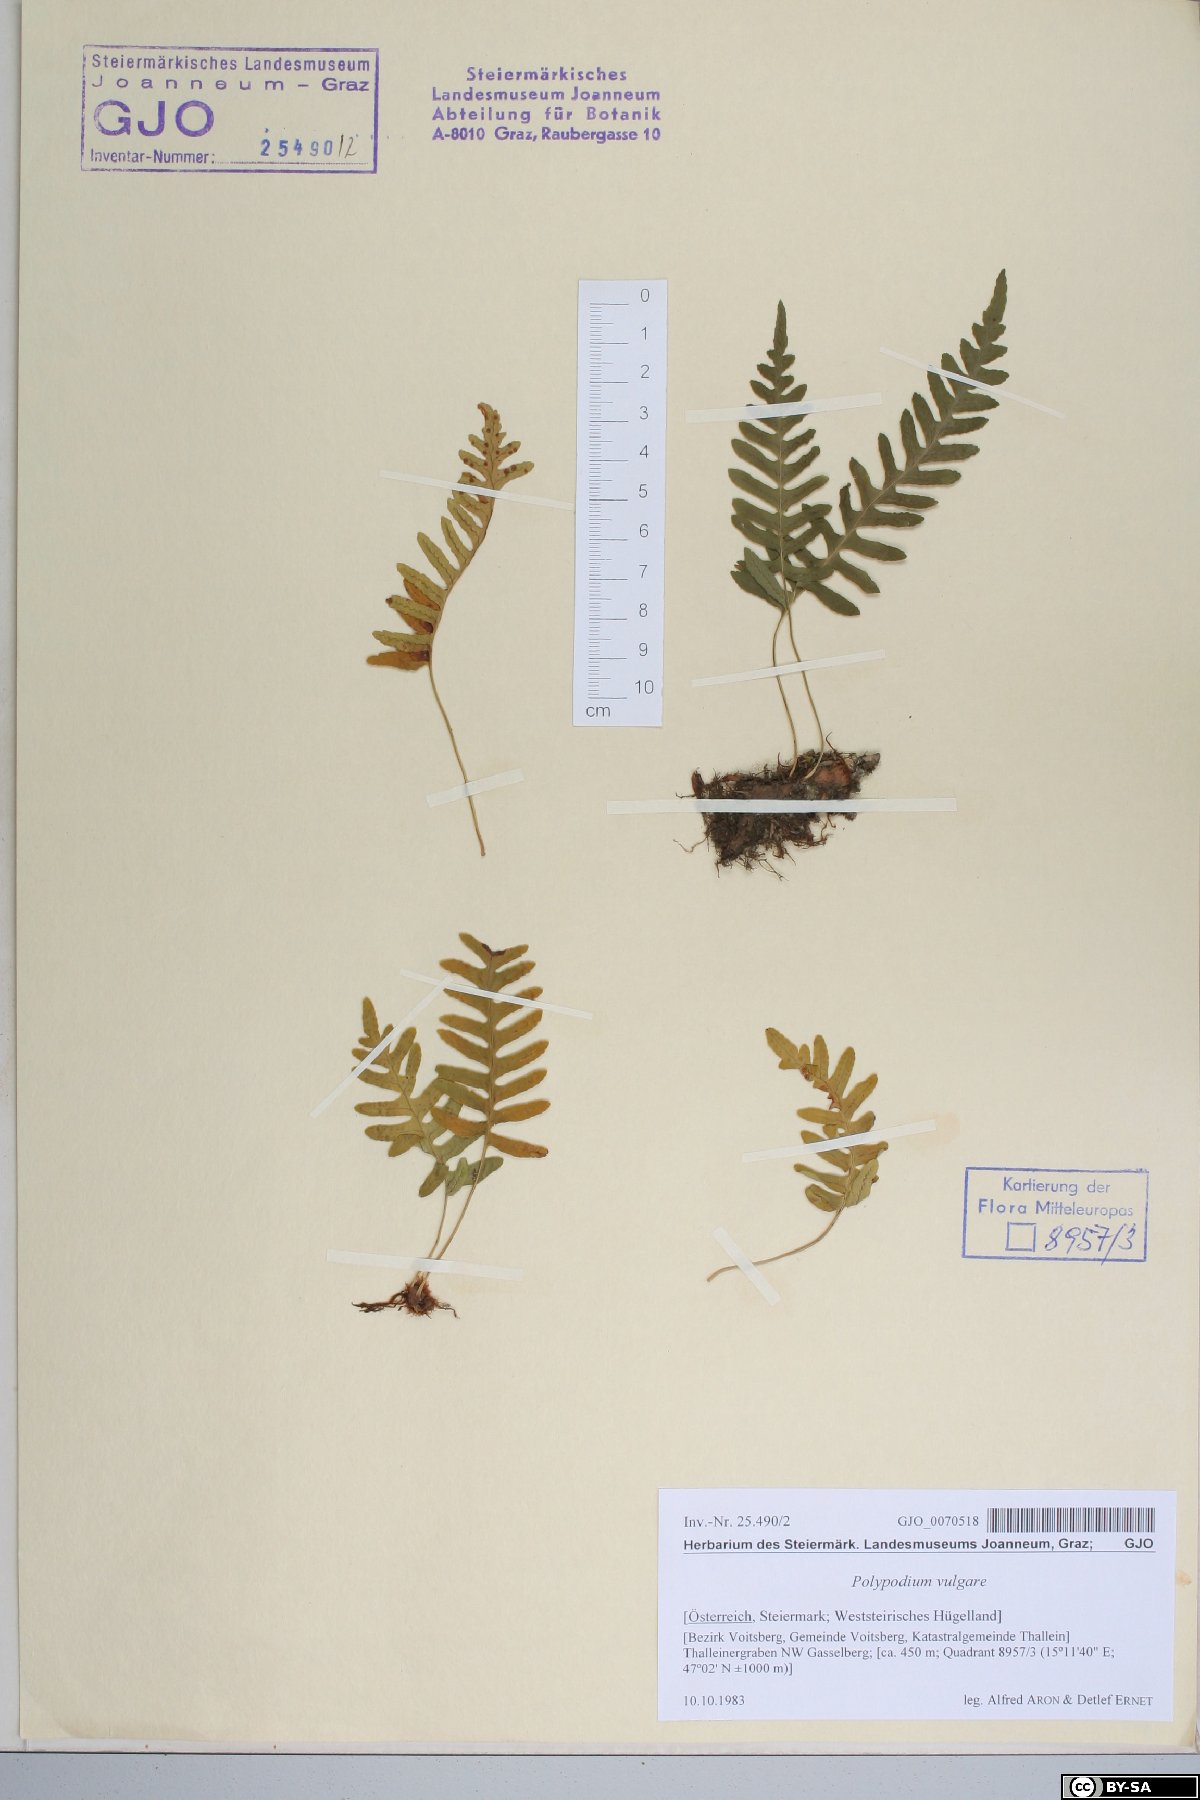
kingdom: Plantae
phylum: Tracheophyta
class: Polypodiopsida
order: Polypodiales
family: Polypodiaceae
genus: Polypodium
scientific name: Polypodium vulgare
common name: Common polypody
